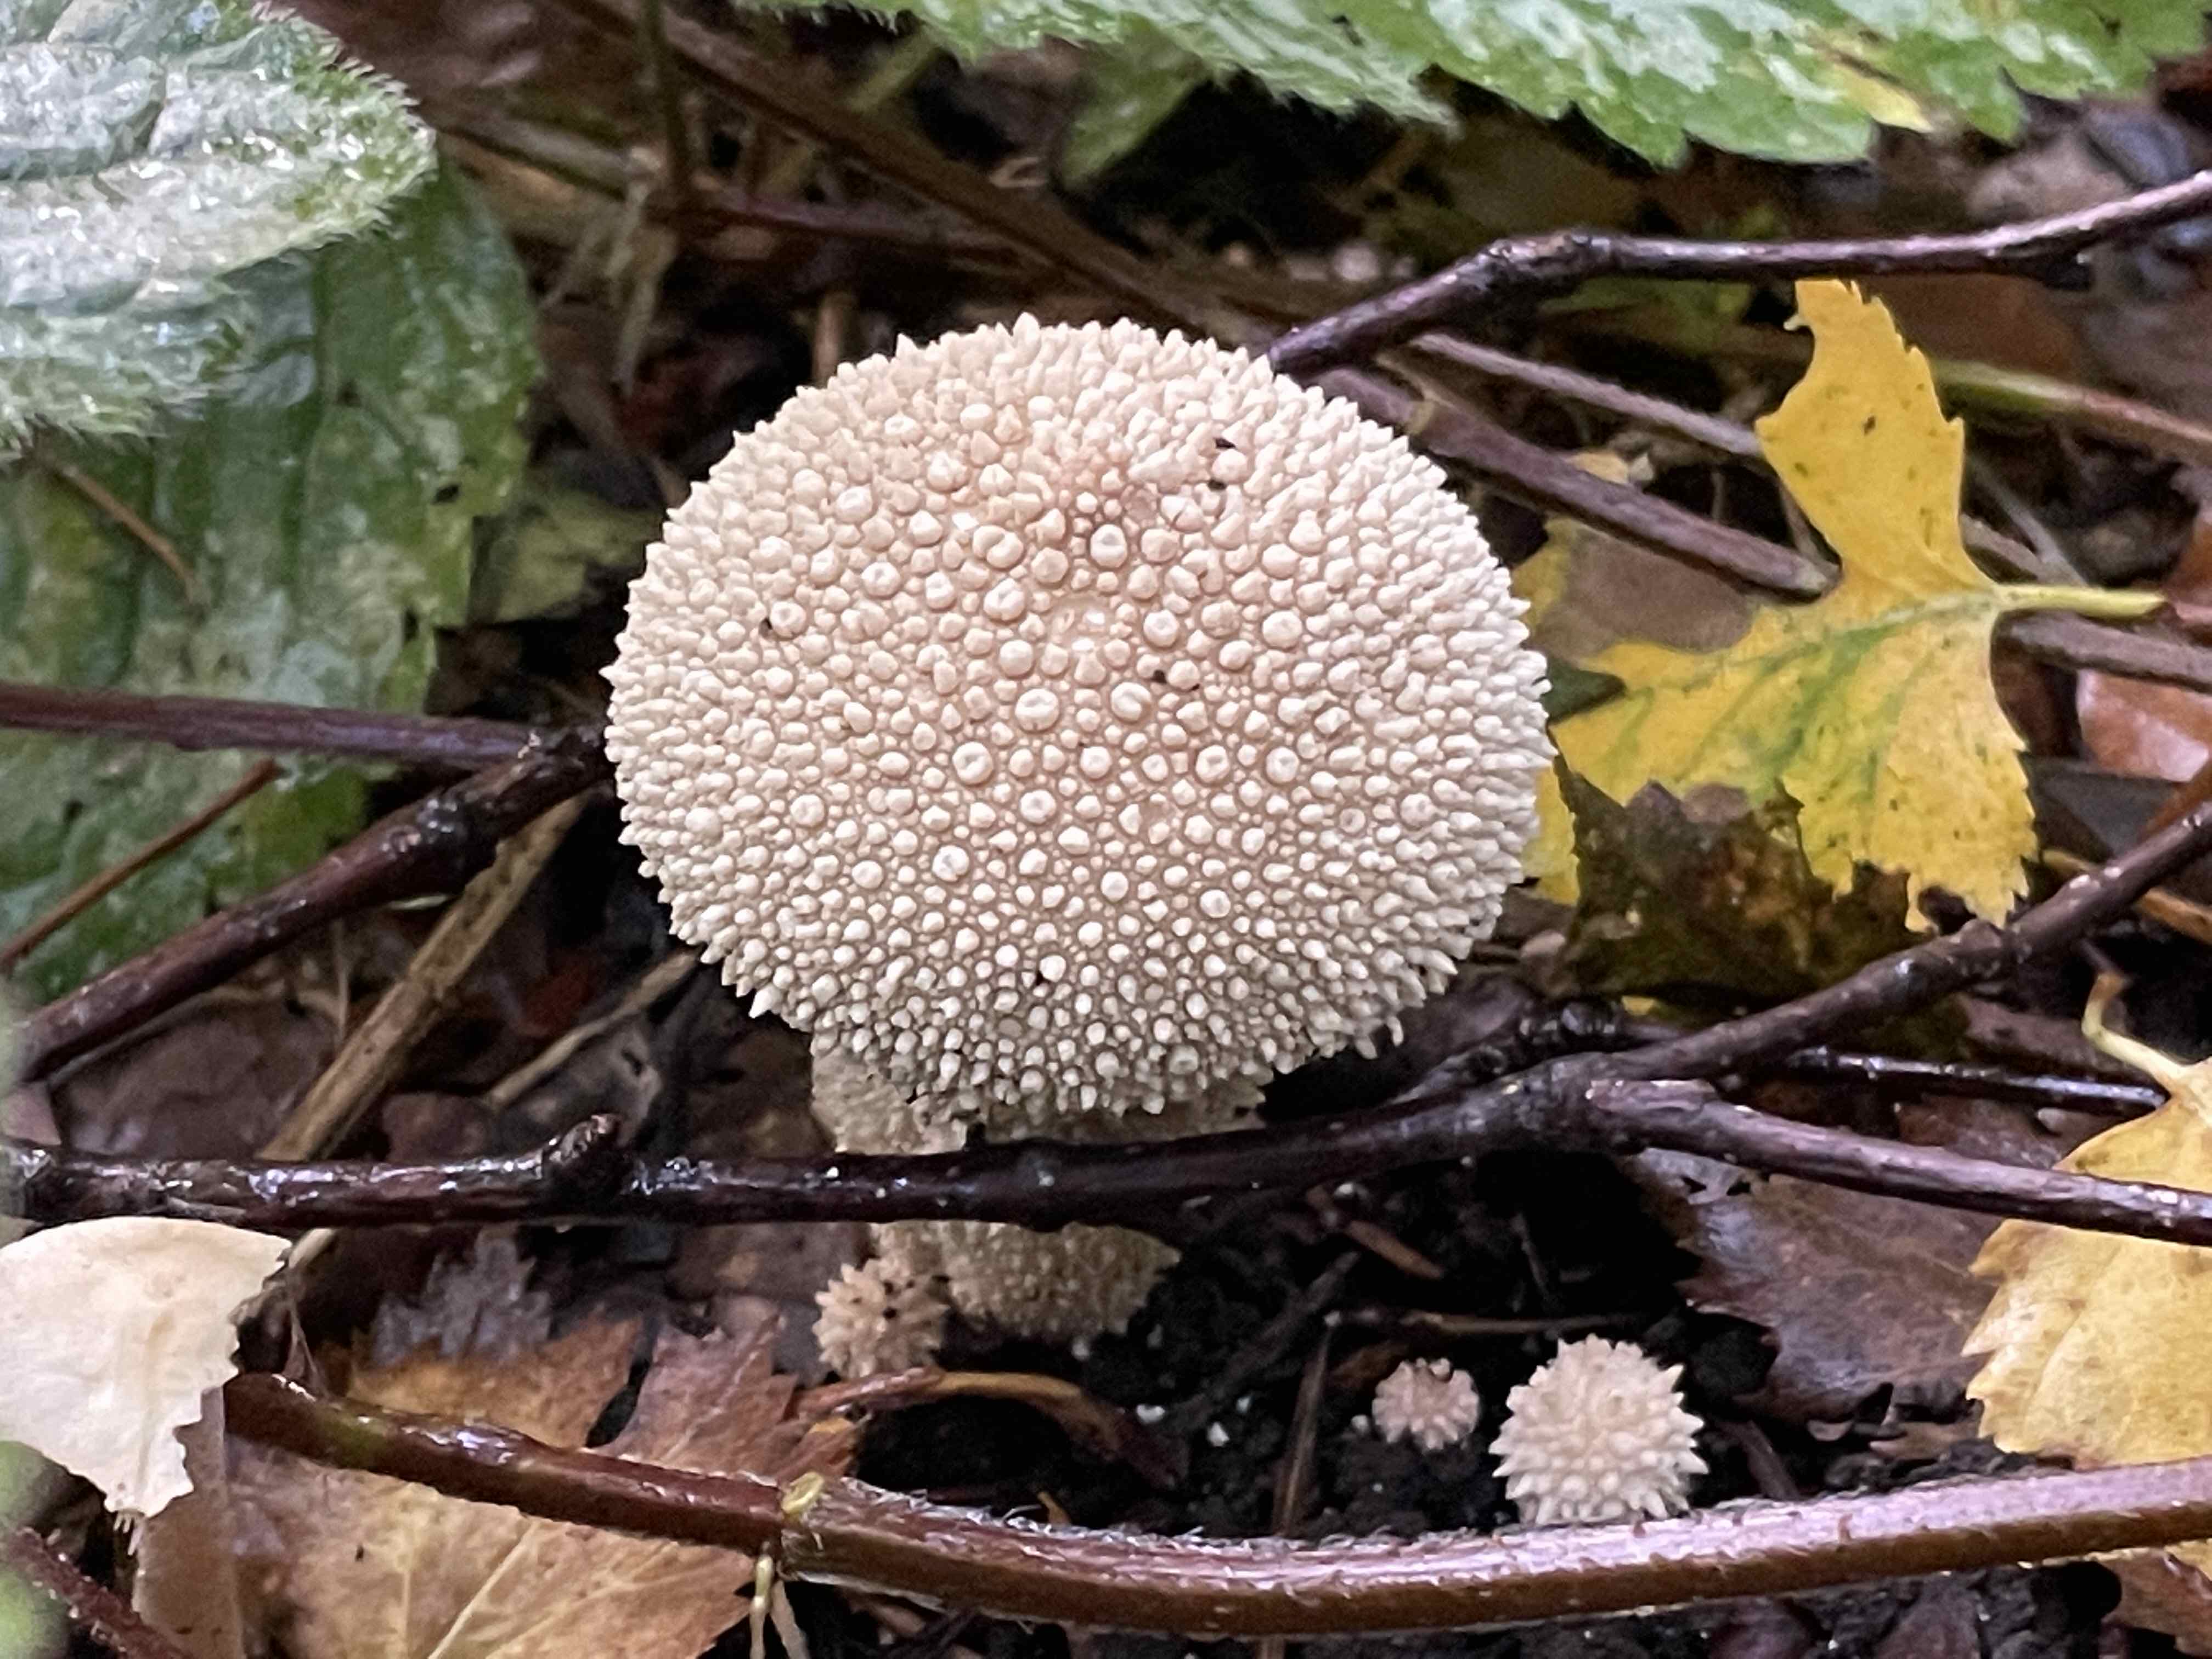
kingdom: Fungi
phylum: Basidiomycota
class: Agaricomycetes
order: Agaricales
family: Lycoperdaceae
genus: Lycoperdon
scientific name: Lycoperdon perlatum
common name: krystal-støvbold
